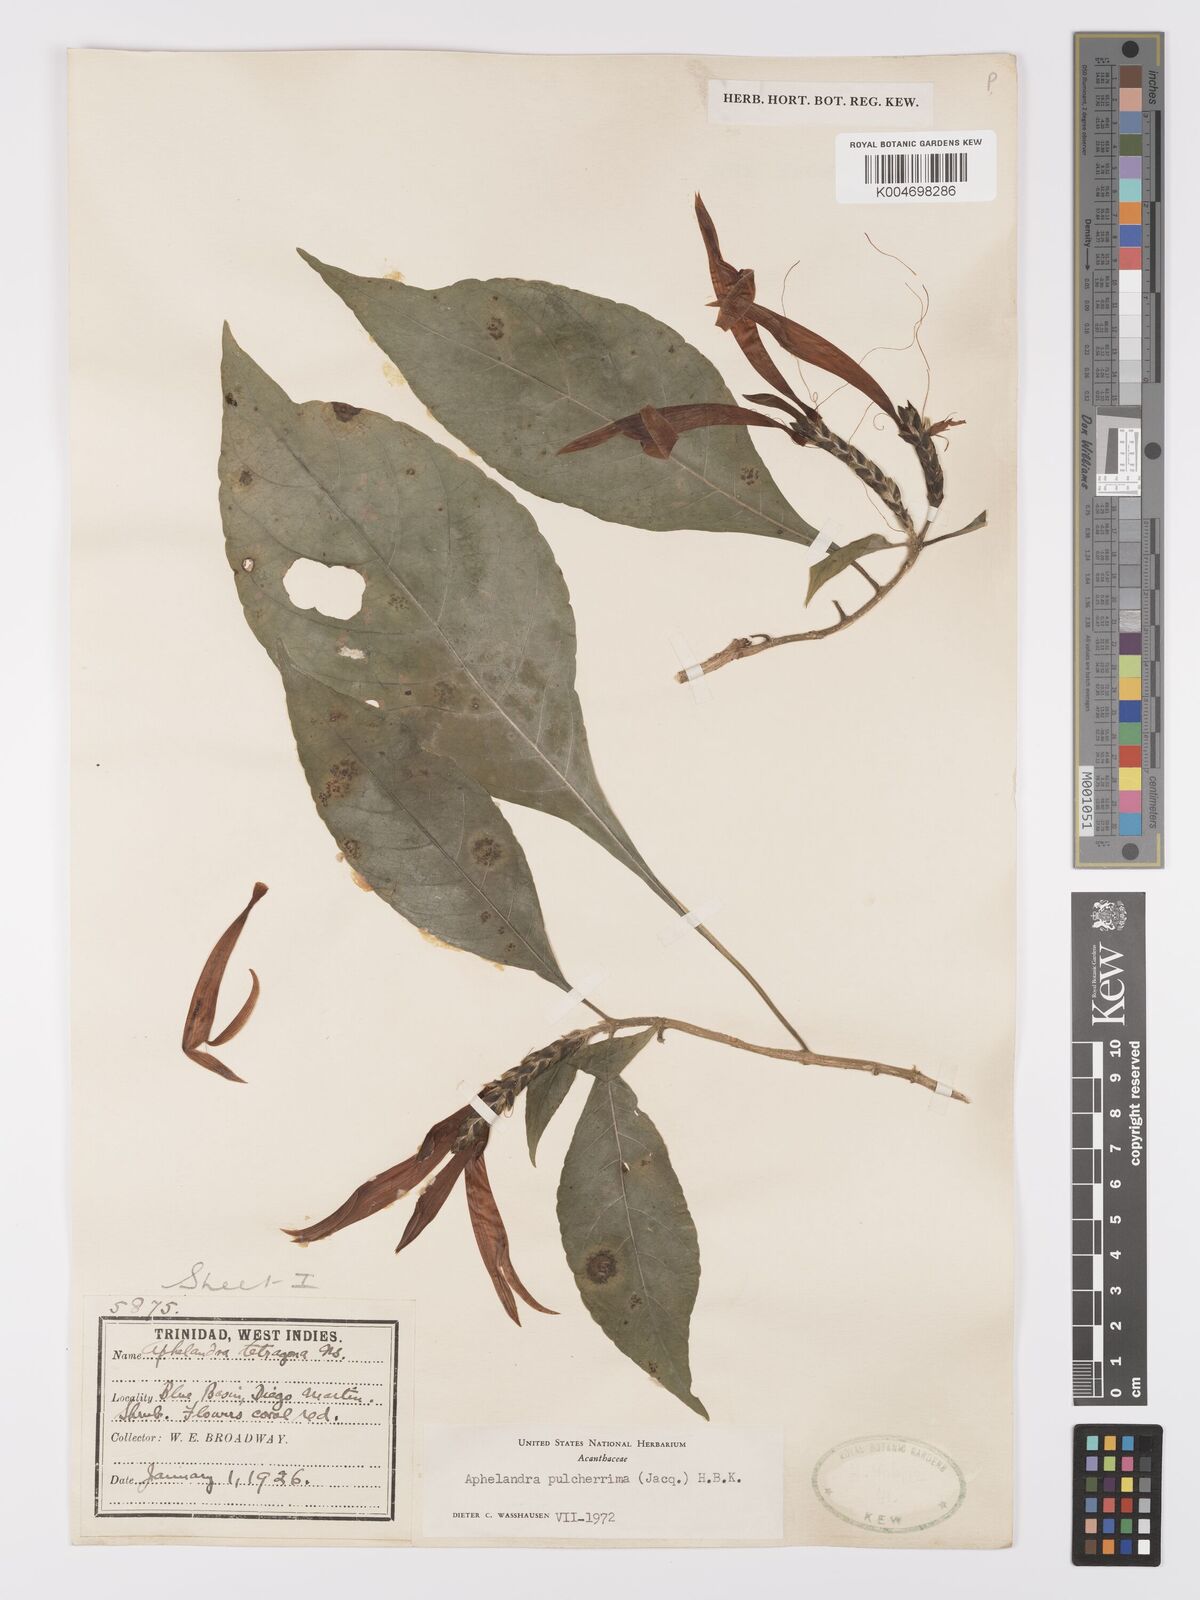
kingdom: Plantae
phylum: Tracheophyta
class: Magnoliopsida
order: Lamiales
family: Acanthaceae
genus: Aphelandra
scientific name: Aphelandra
